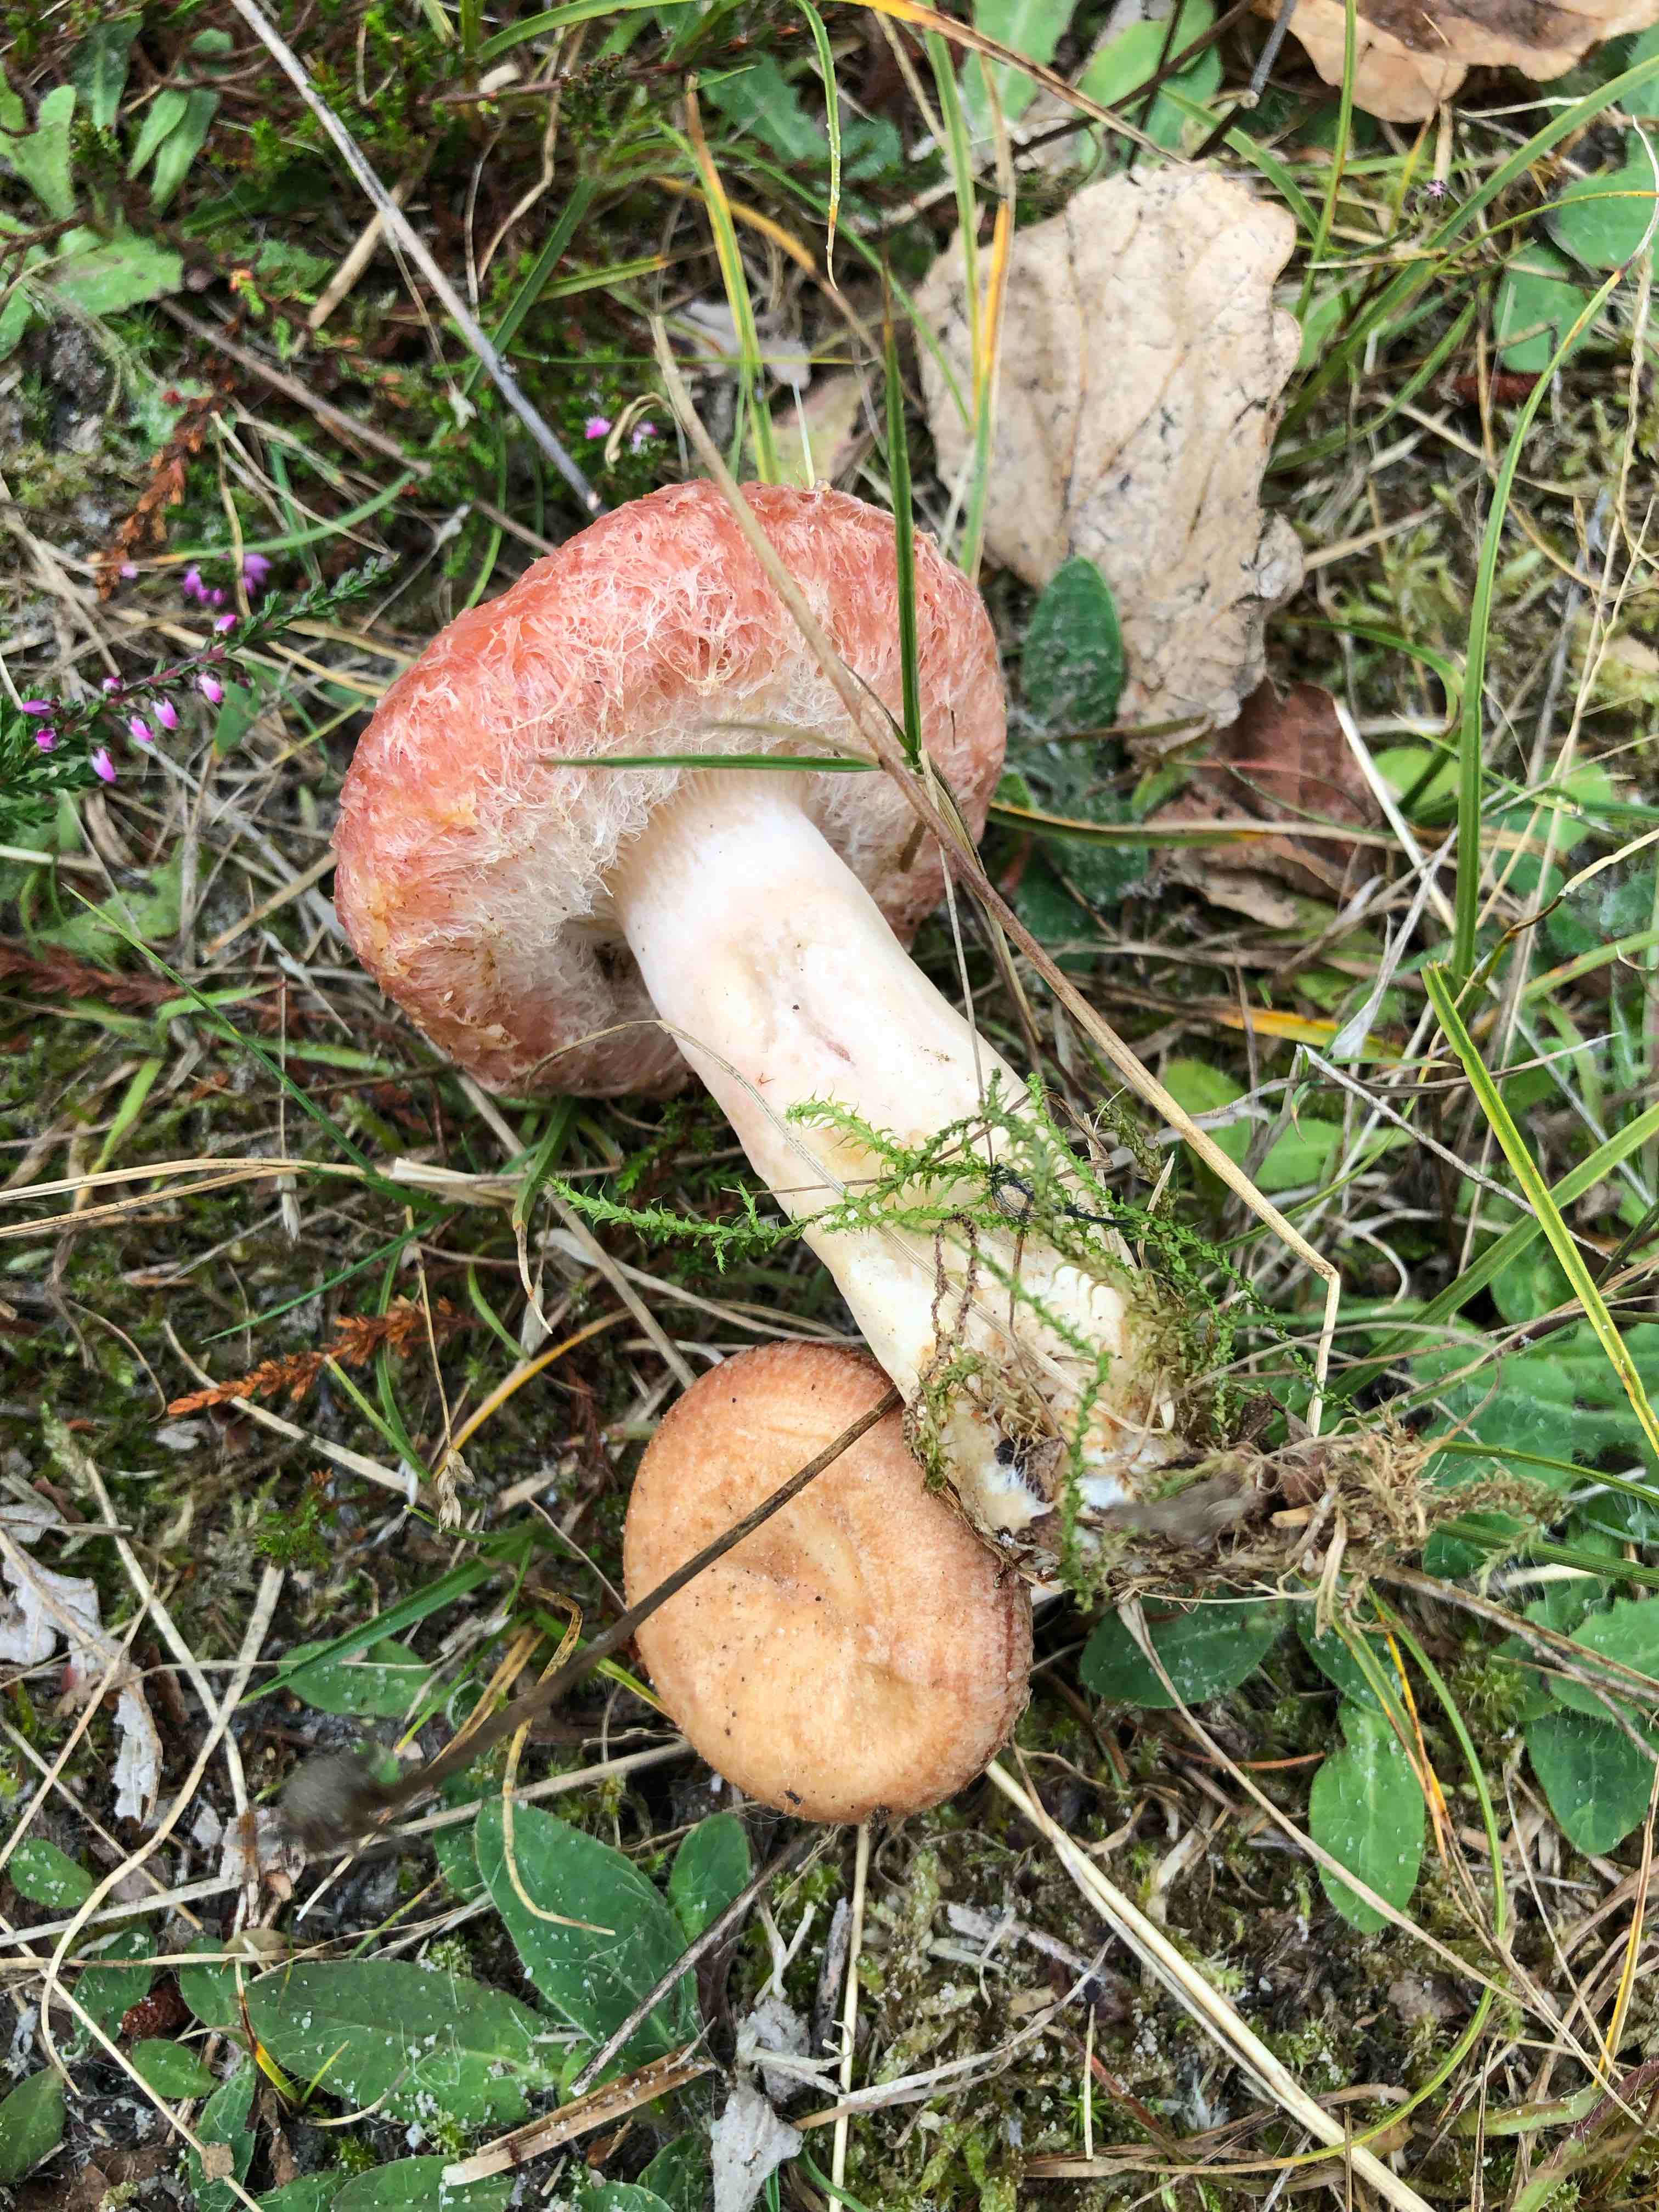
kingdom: Fungi
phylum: Basidiomycota
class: Agaricomycetes
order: Russulales
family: Russulaceae
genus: Lactarius
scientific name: Lactarius torminosus
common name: skægget mælkehat
